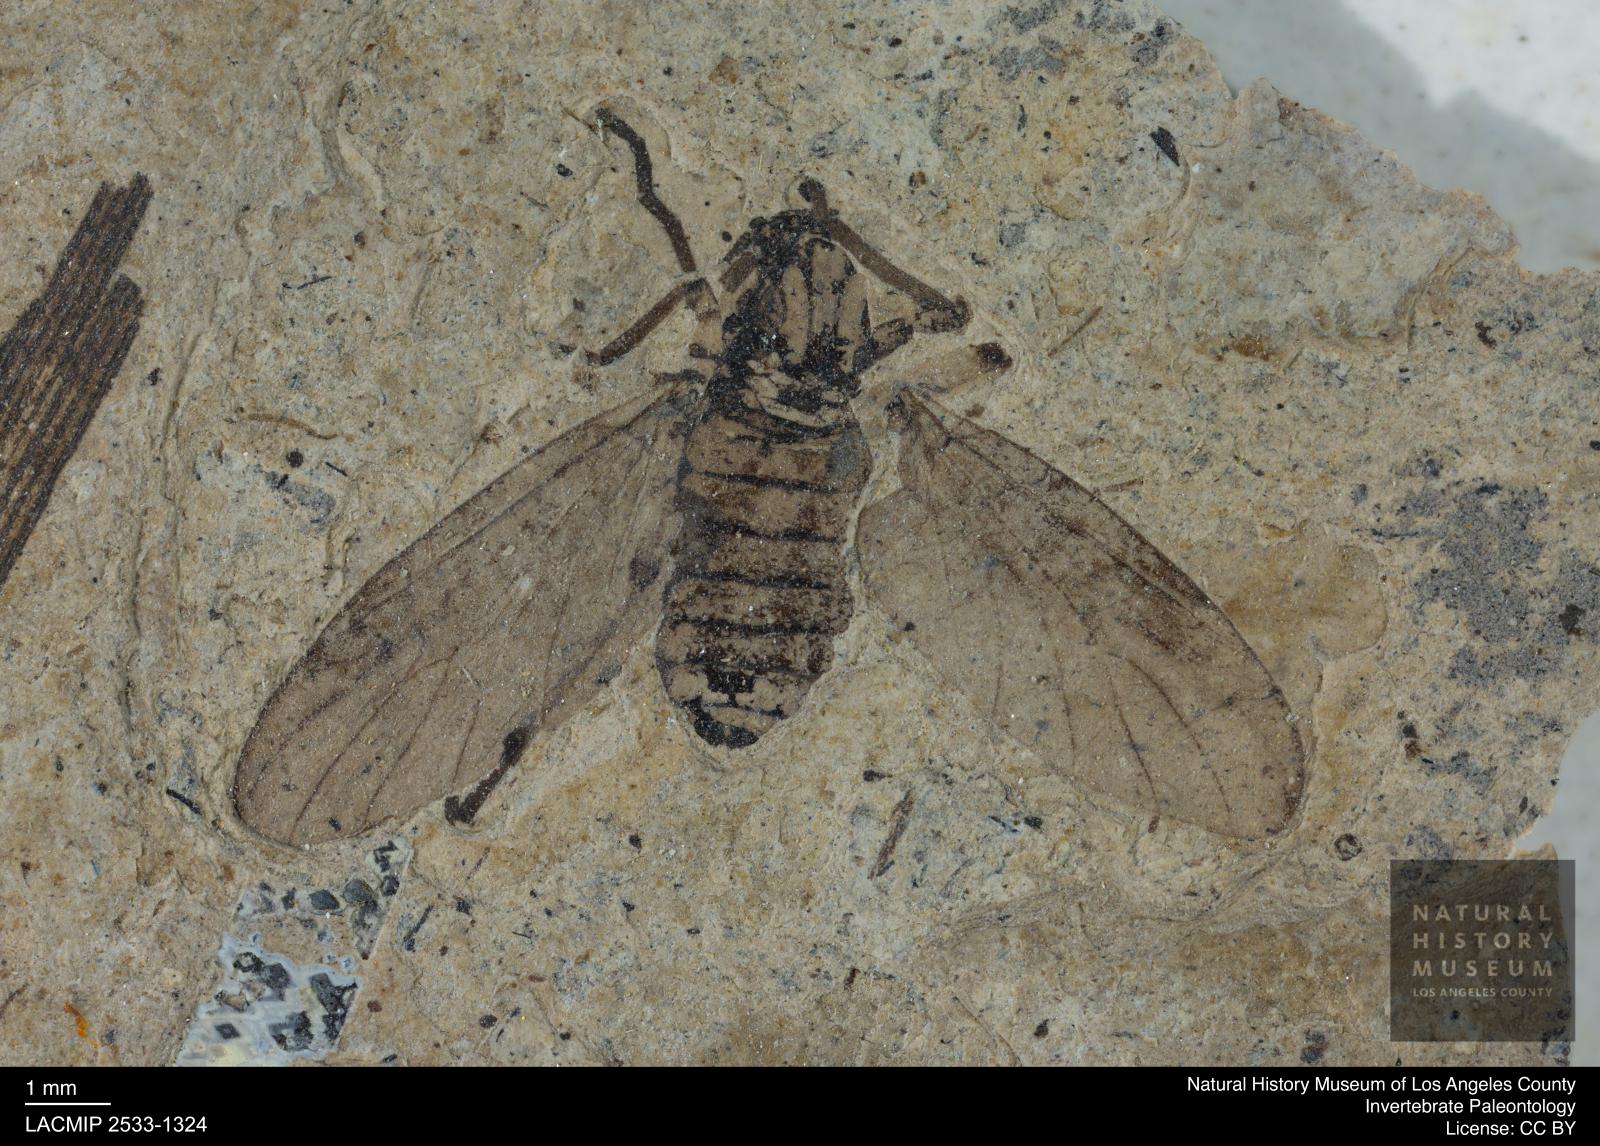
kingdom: Animalia
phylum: Arthropoda
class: Insecta
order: Diptera
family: Bibionidae
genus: Plecia
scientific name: Plecia hypogaea
